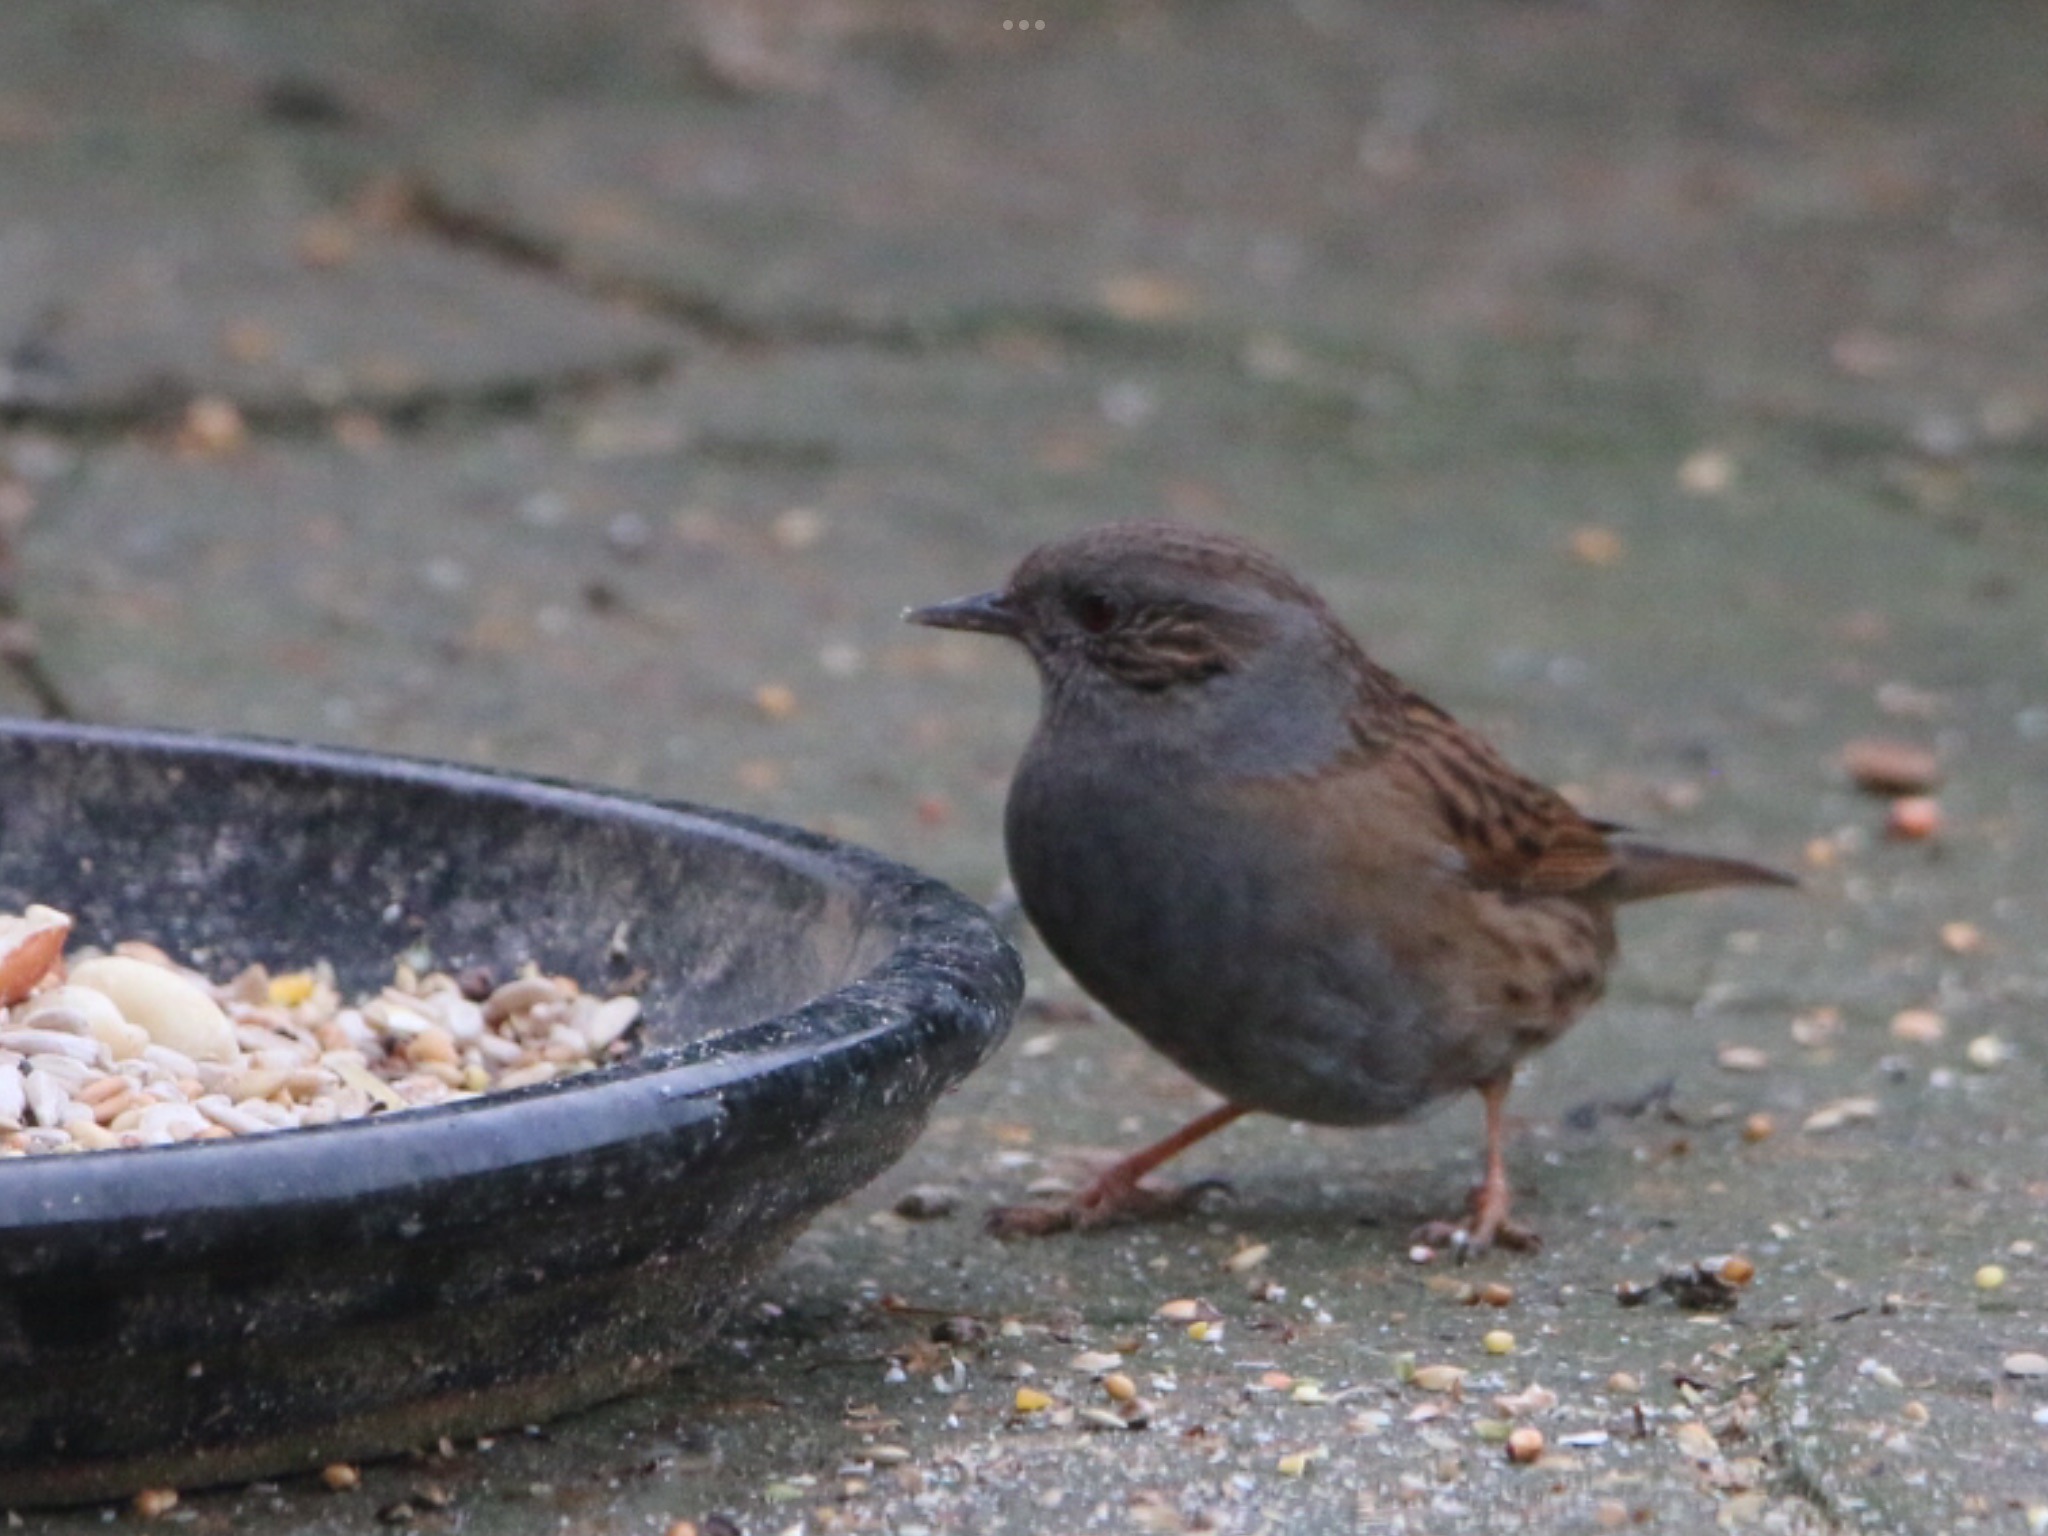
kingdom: Animalia
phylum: Chordata
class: Aves
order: Passeriformes
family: Prunellidae
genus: Prunella
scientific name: Prunella modularis
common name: Jernspurv
